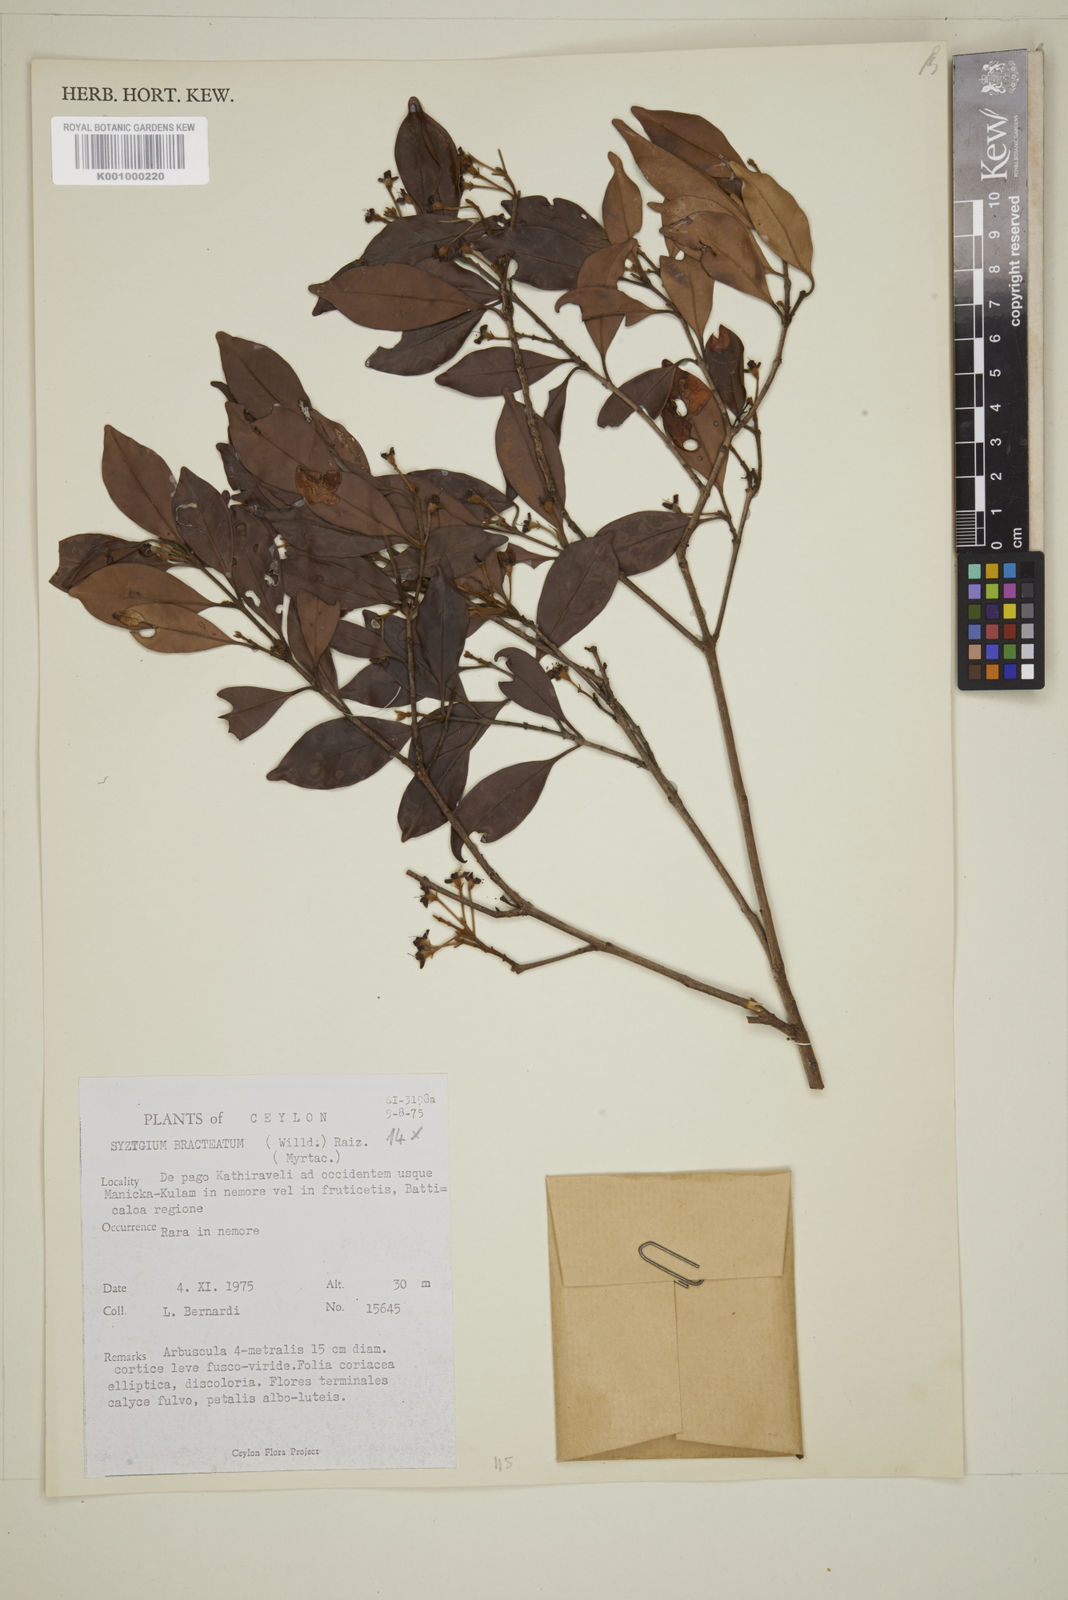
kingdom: Plantae
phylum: Tracheophyta
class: Magnoliopsida
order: Myrtales
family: Myrtaceae
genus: Eugenia
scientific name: Eugenia pseudopsidium
